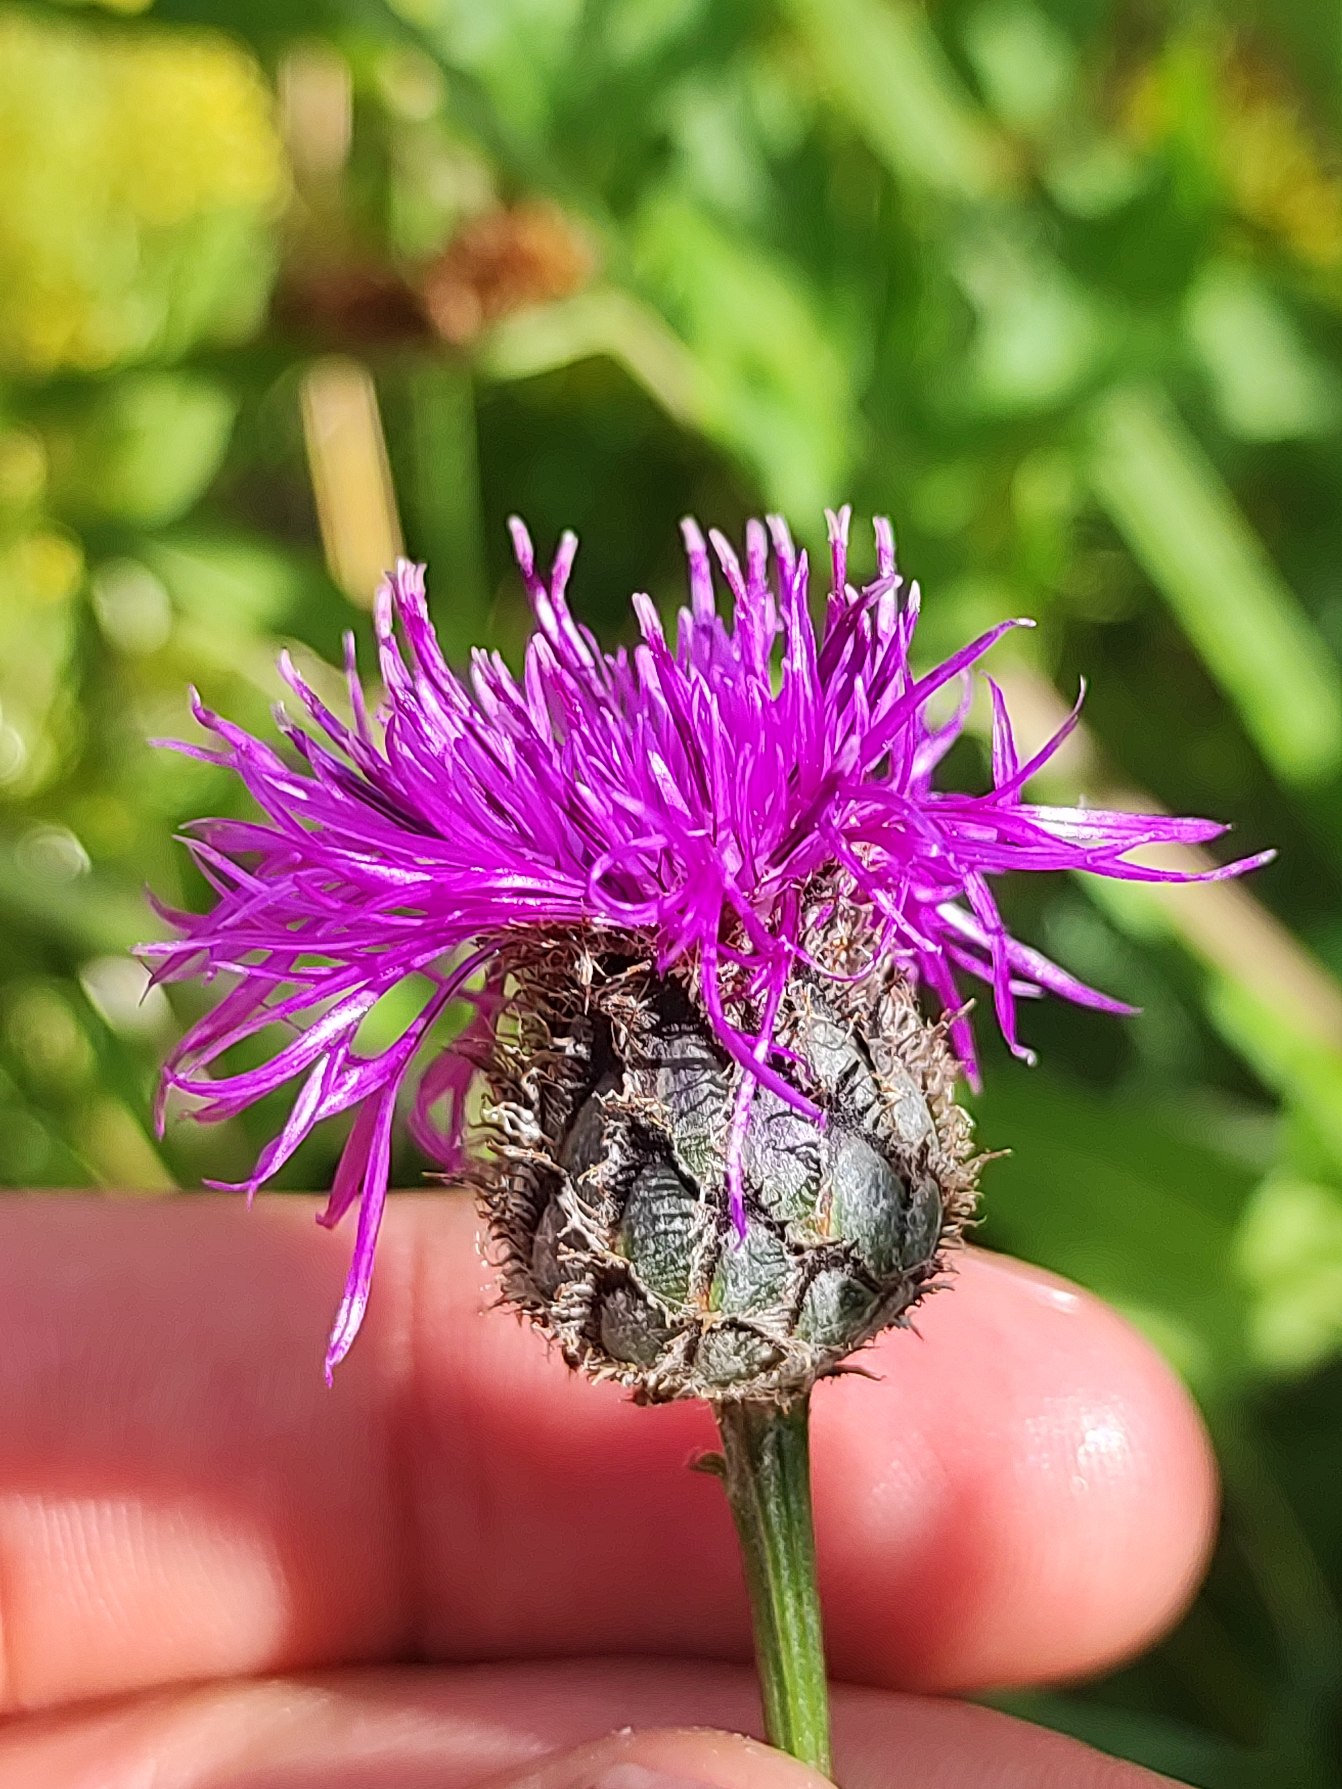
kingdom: Plantae
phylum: Tracheophyta
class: Magnoliopsida
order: Asterales
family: Asteraceae
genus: Centaurea
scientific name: Centaurea scabiosa
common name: Stor knopurt
